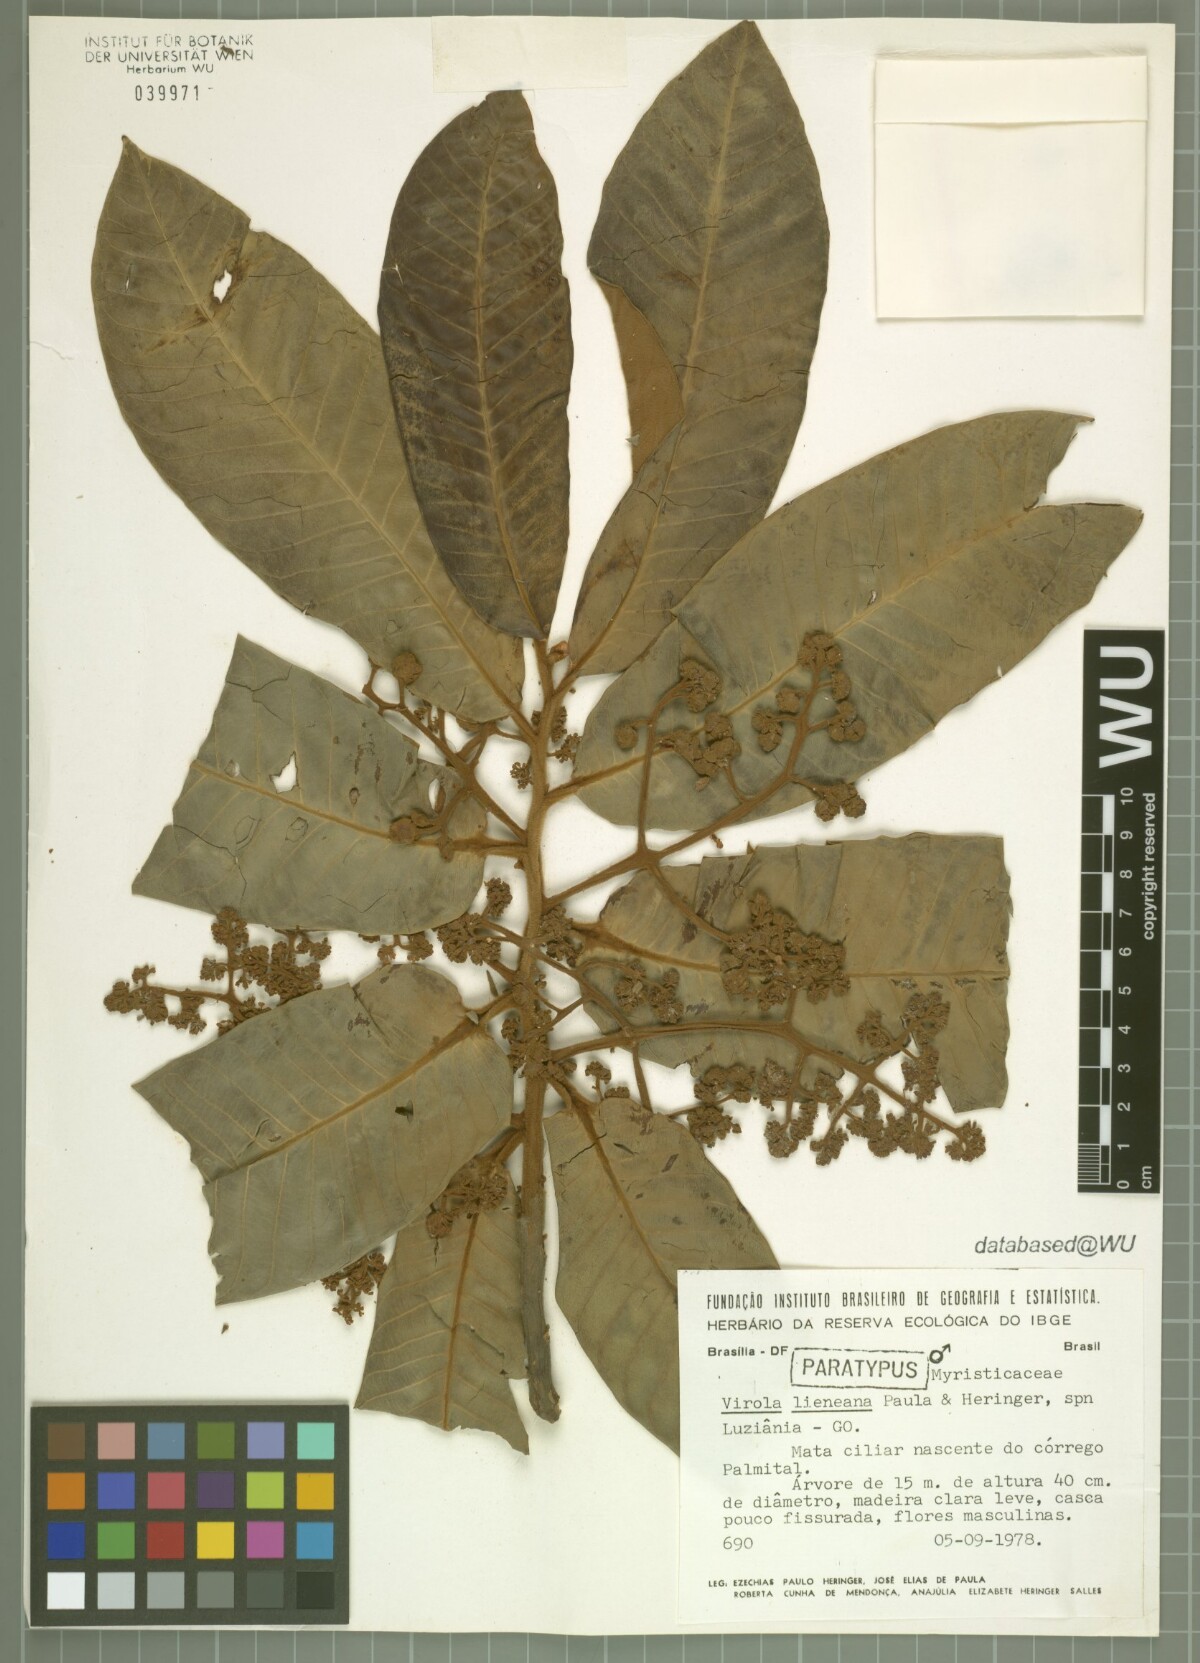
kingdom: Plantae
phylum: Tracheophyta
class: Magnoliopsida
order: Magnoliales
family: Myristicaceae
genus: Virola
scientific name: Virola lieneana
